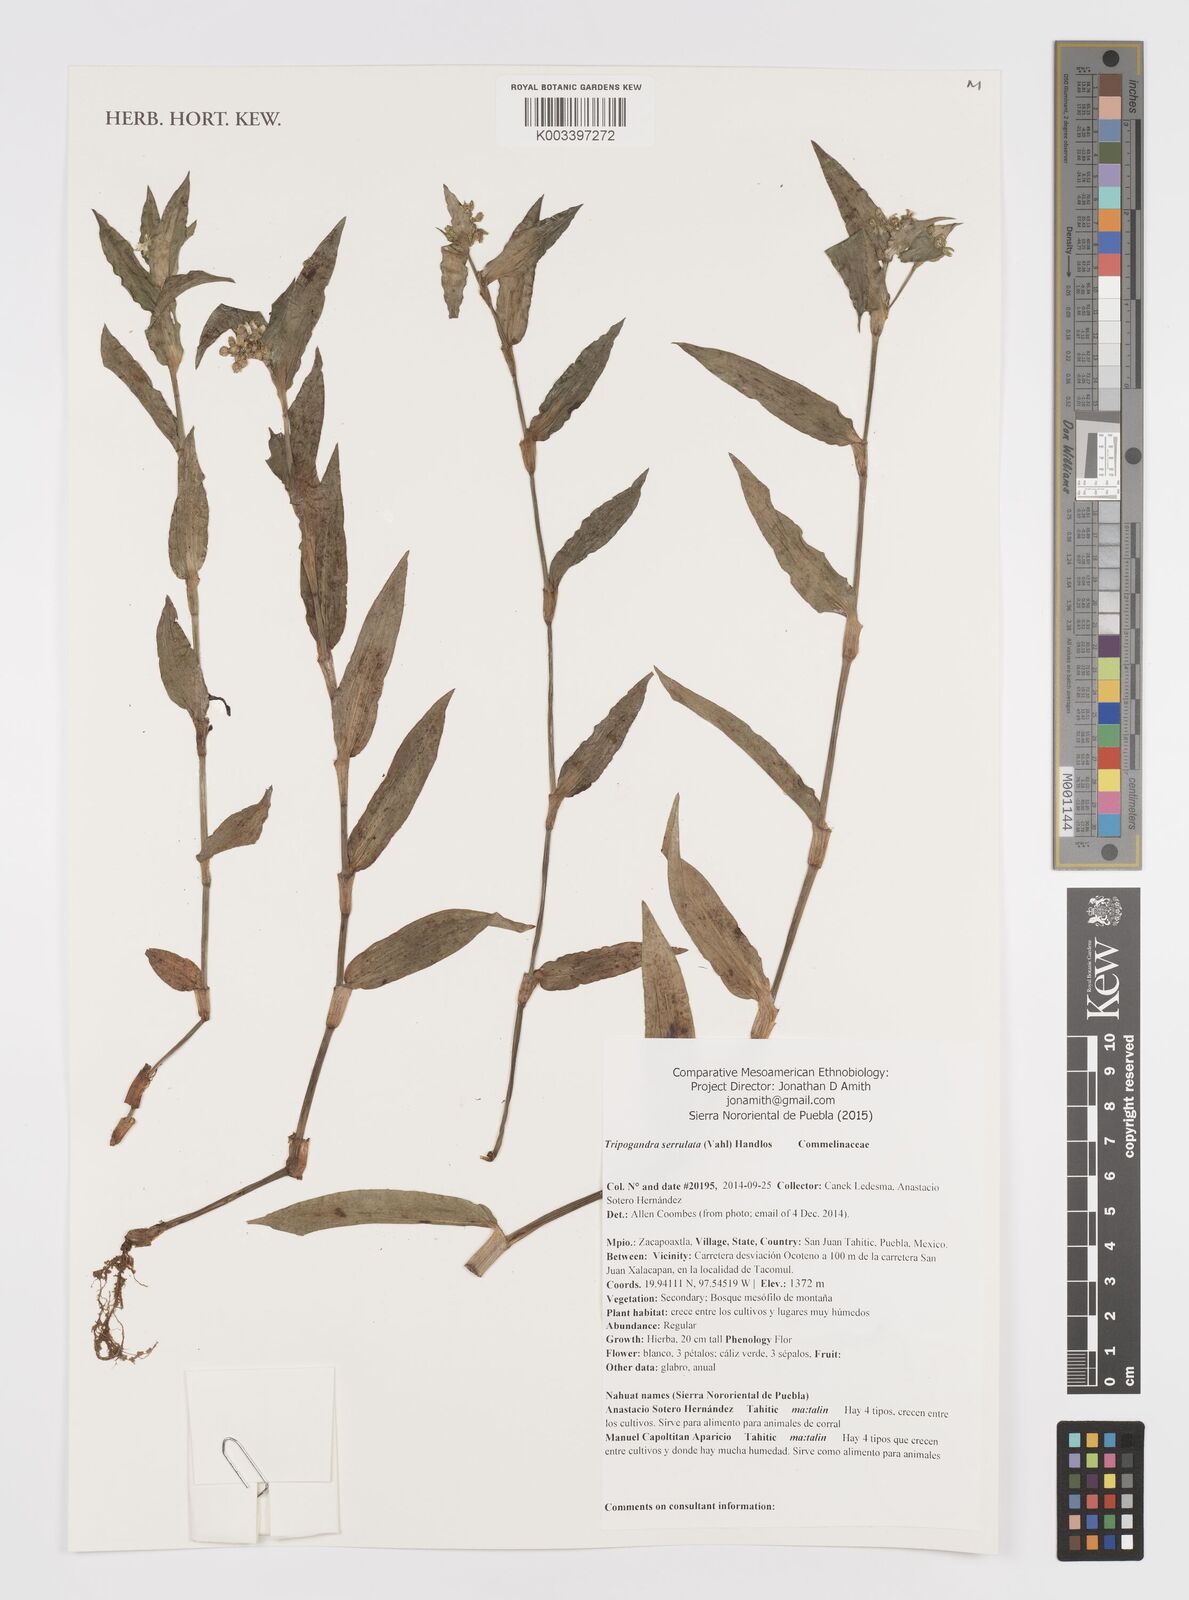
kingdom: Plantae
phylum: Tracheophyta
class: Liliopsida
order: Commelinales
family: Commelinaceae
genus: Callisia
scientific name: Callisia serrulata
